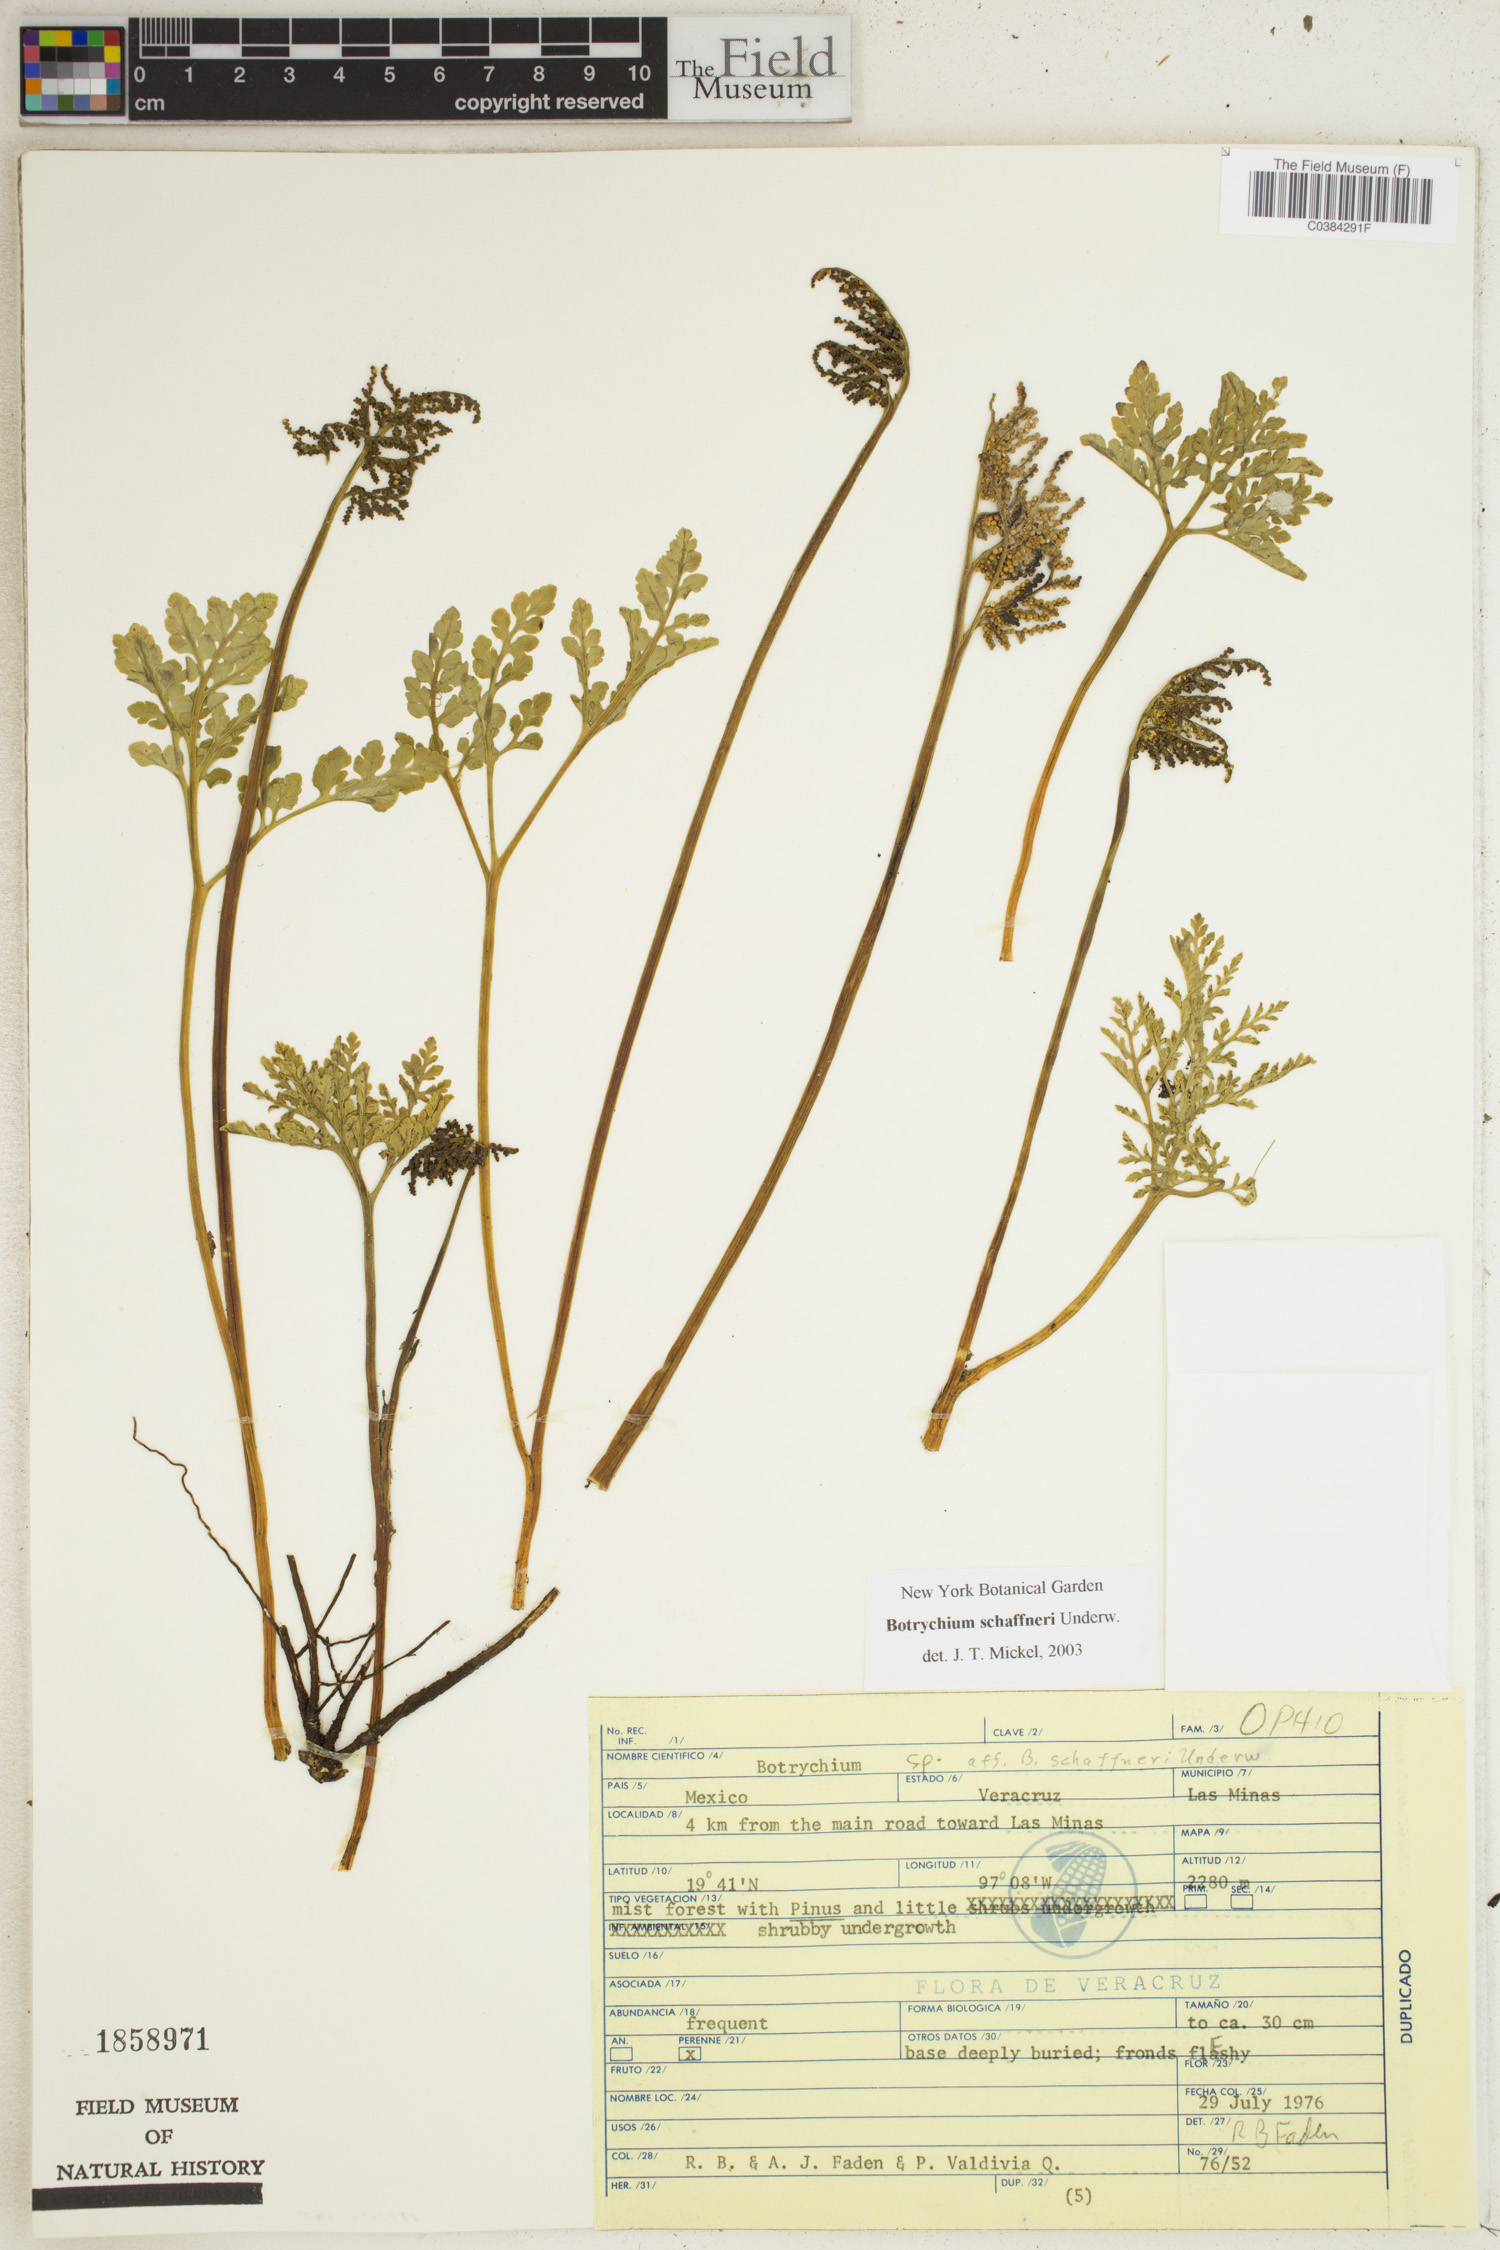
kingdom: Plantae
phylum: Tracheophyta
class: Polypodiopsida
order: Ophioglossales
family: Ophioglossaceae
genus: Sceptridium
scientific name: Sceptridium schaffneri
